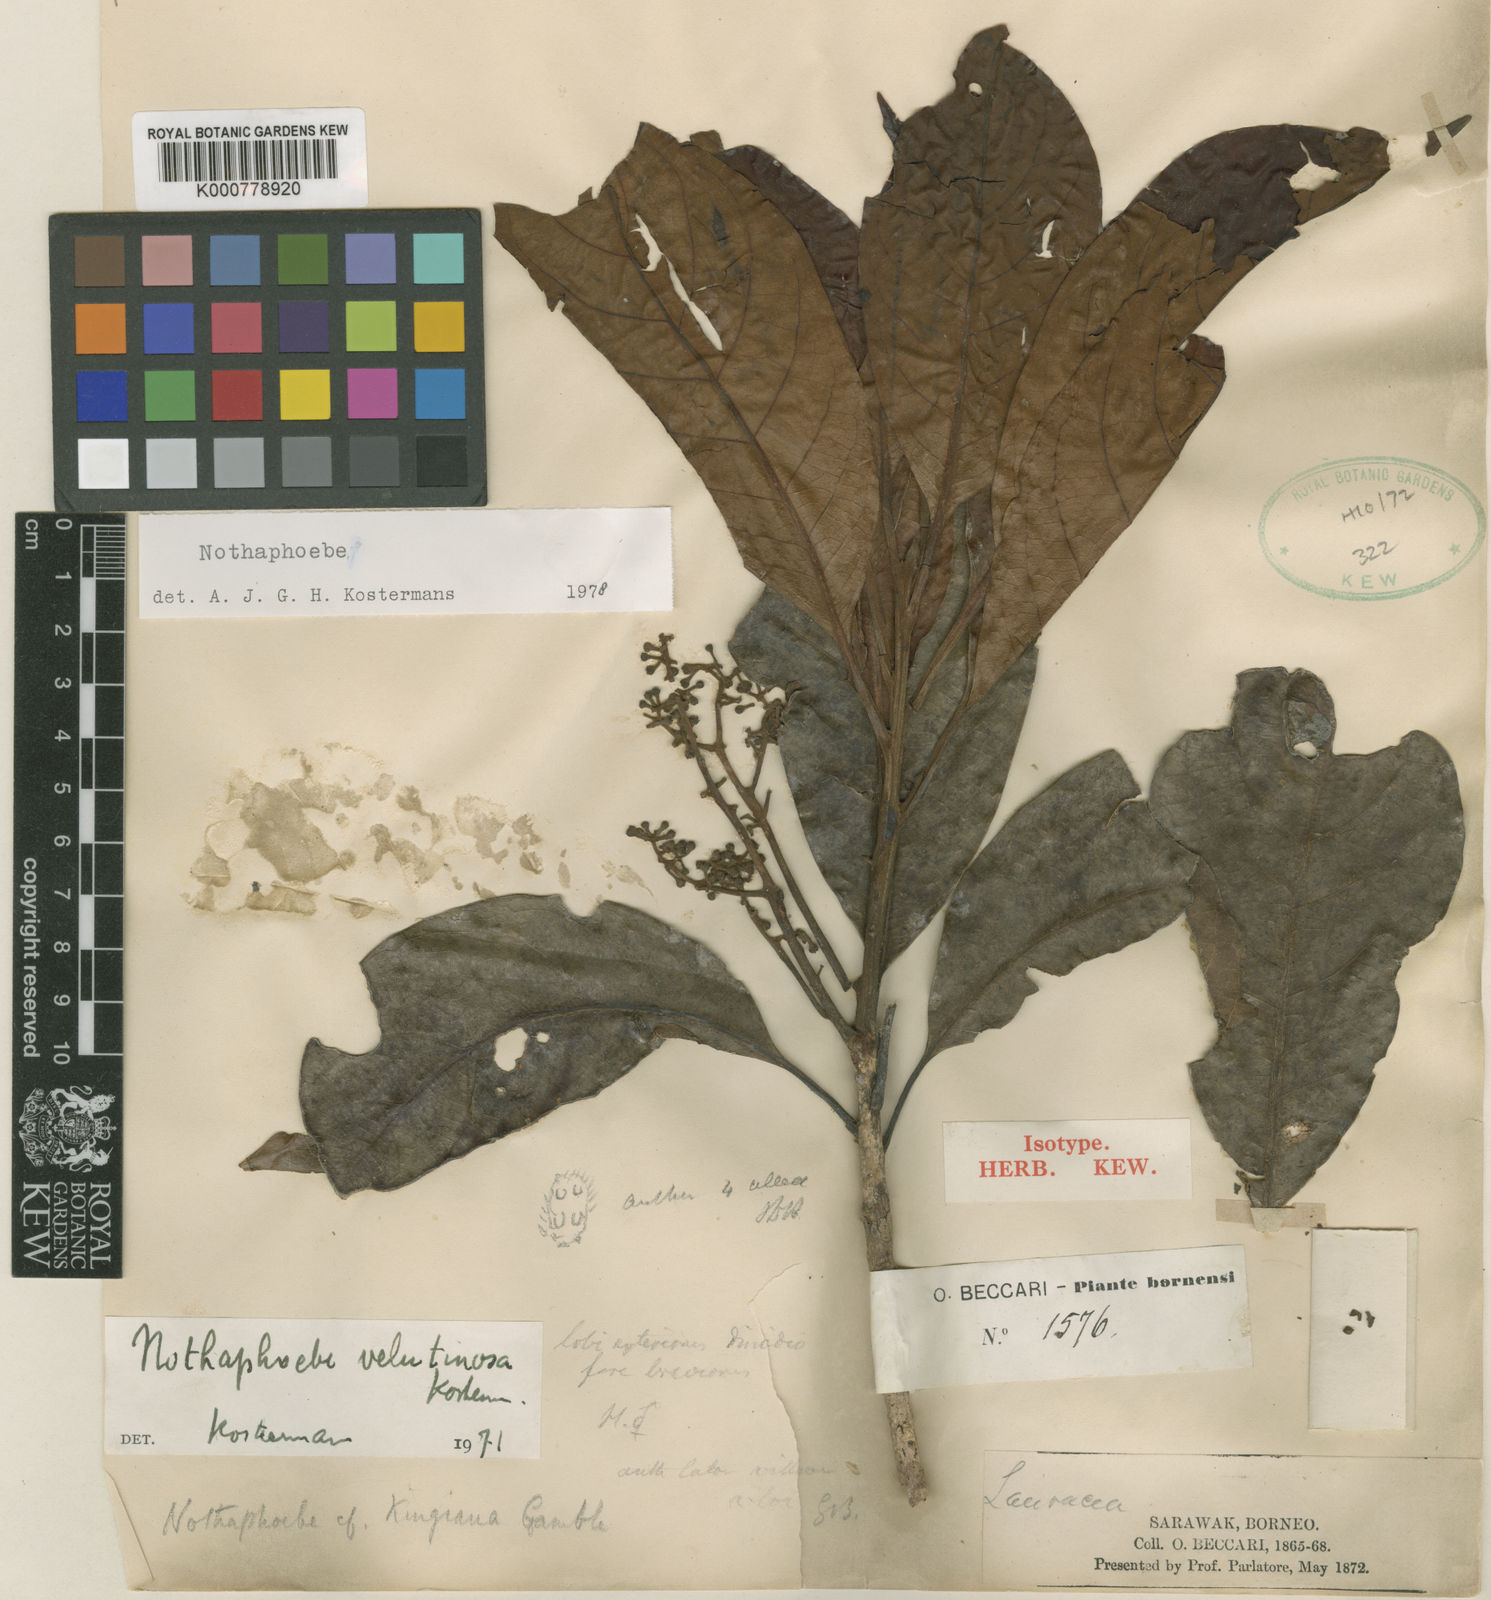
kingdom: Plantae
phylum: Tracheophyta
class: Magnoliopsida
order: Laurales
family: Lauraceae
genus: Nothaphoebe
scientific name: Nothaphoebe
